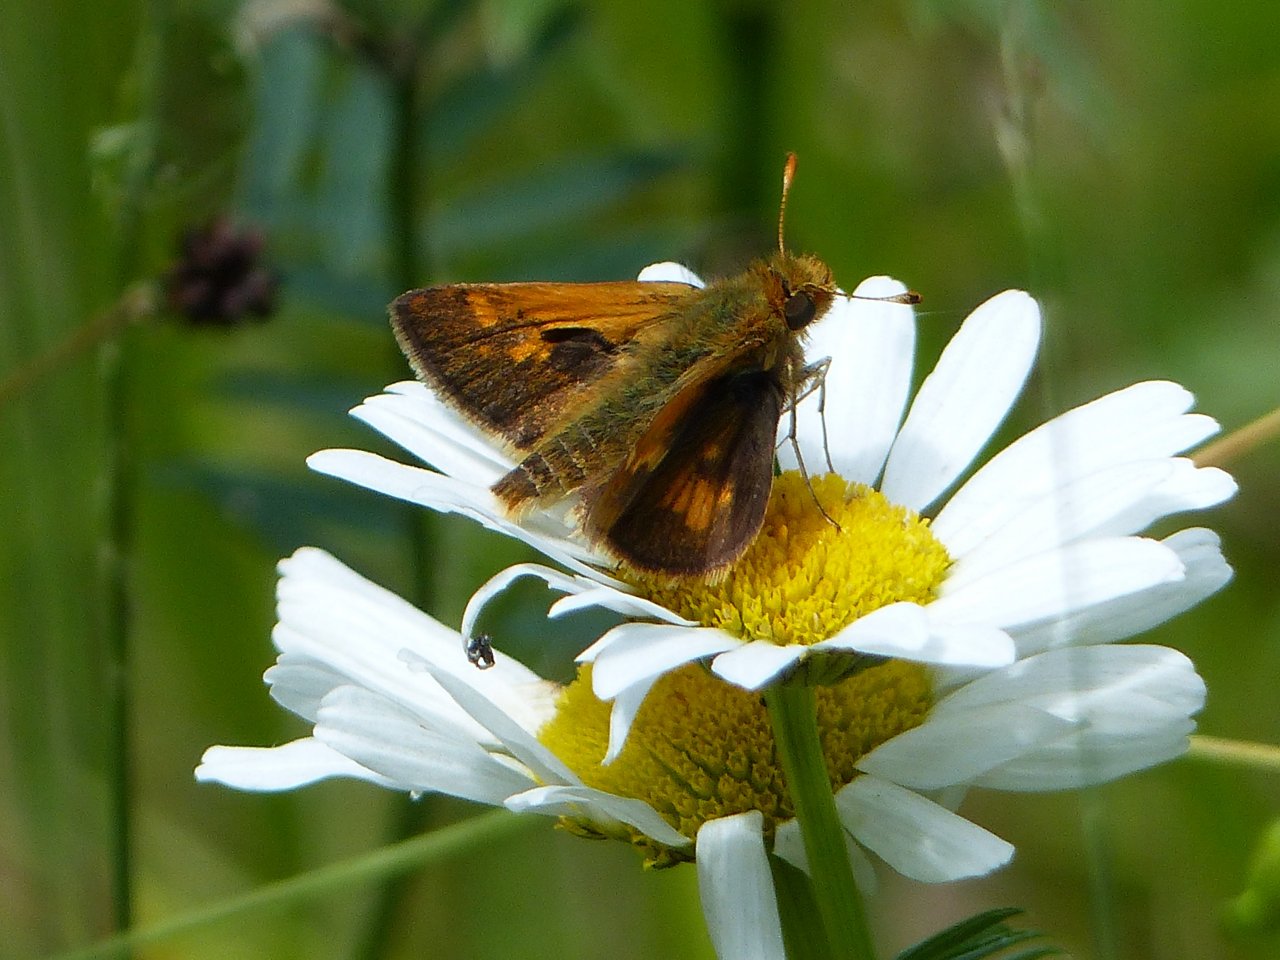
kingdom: Animalia
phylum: Arthropoda
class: Insecta
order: Lepidoptera
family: Hesperiidae
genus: Polites
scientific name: Polites coras
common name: Peck's Skipper
